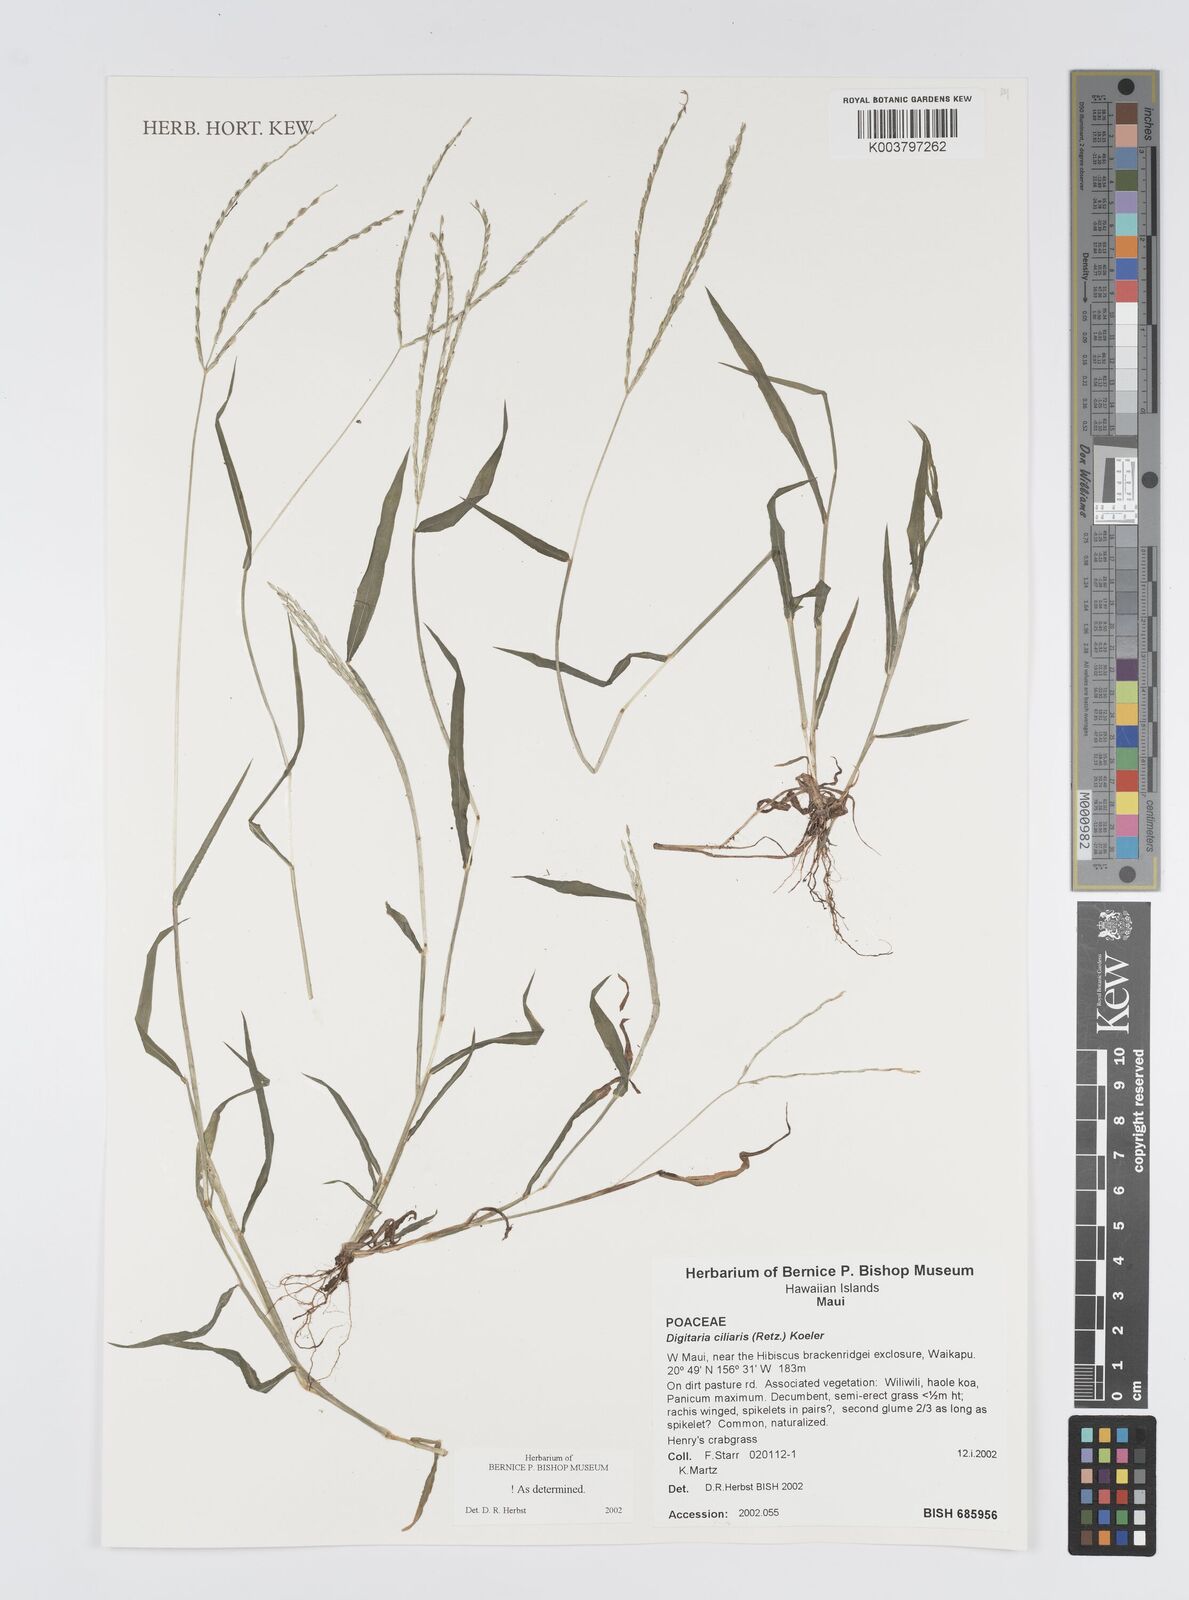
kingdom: Plantae
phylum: Tracheophyta
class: Liliopsida
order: Poales
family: Poaceae
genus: Digitaria
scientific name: Digitaria ciliaris
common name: Tropical finger-grass
